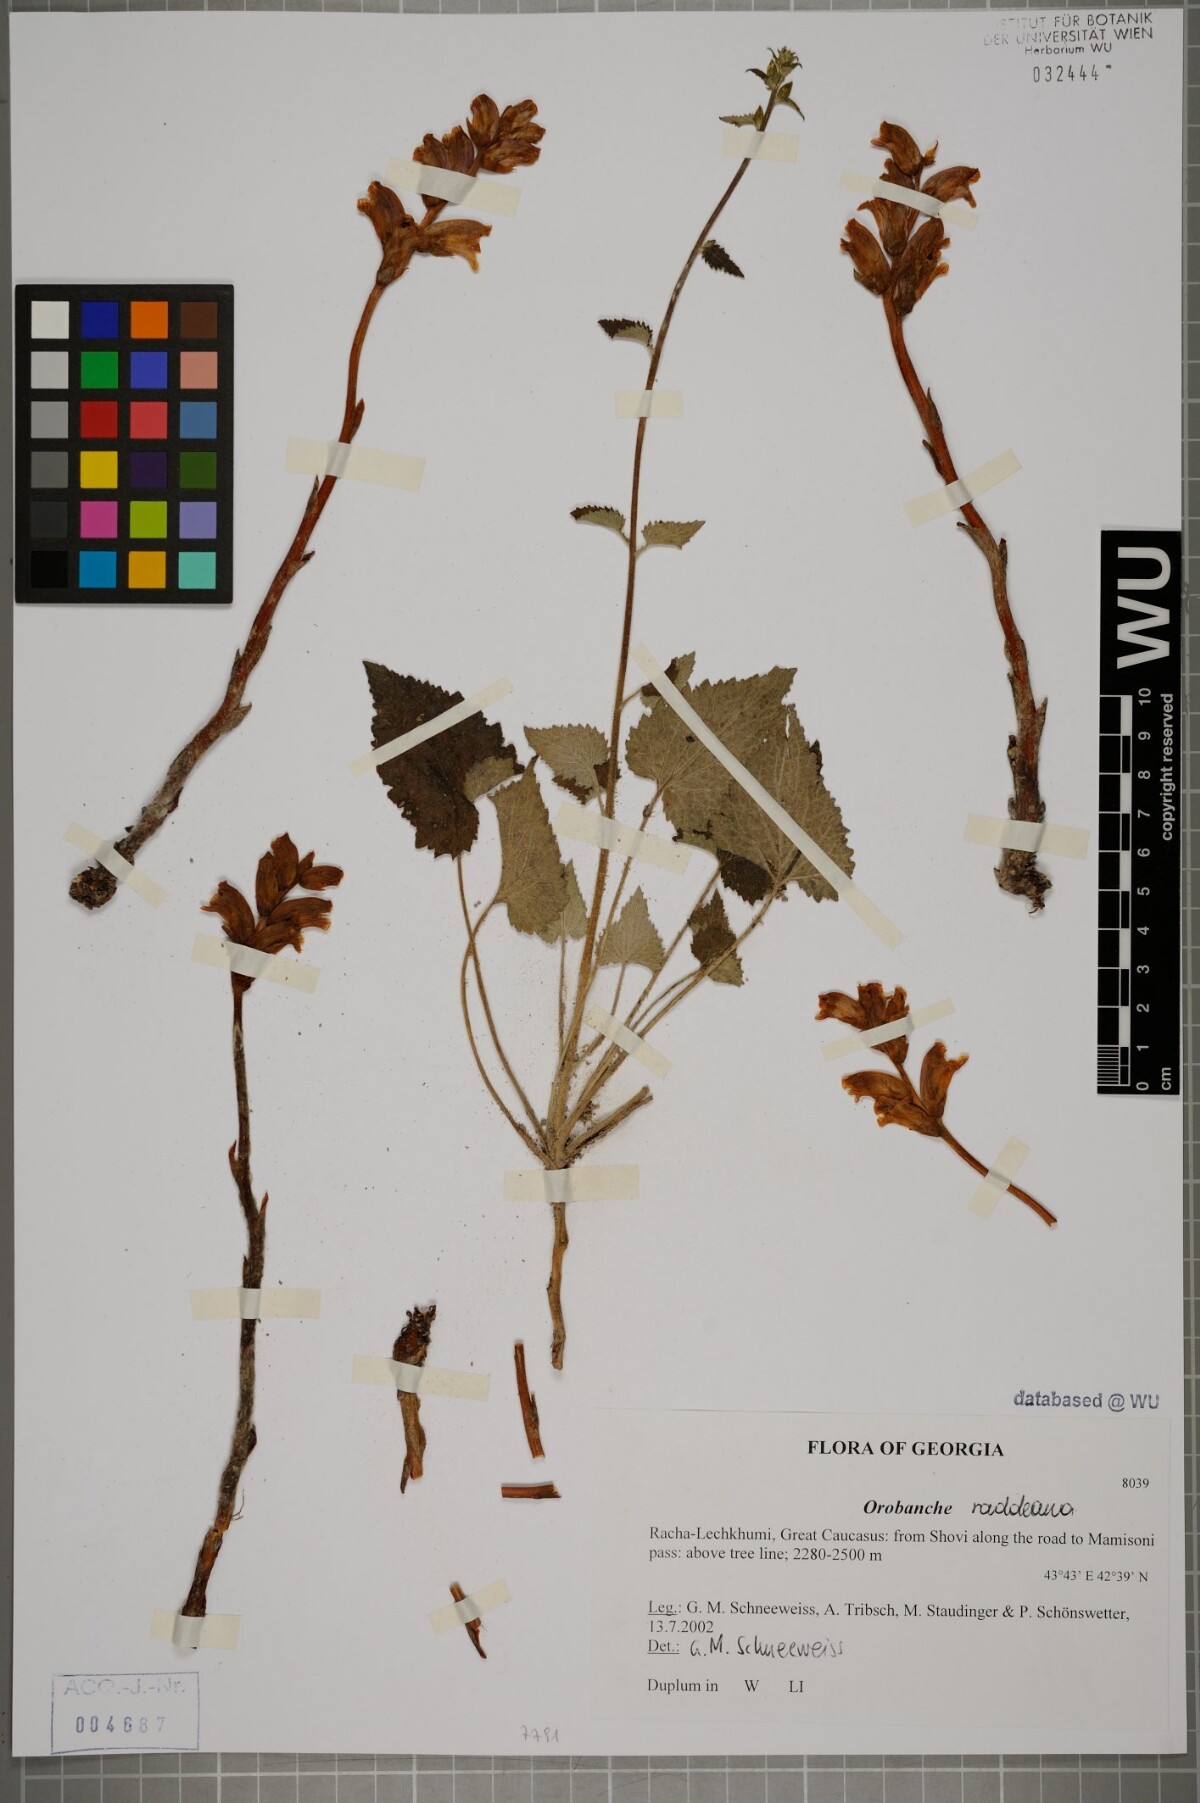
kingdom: Plantae
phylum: Tracheophyta
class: Magnoliopsida
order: Lamiales
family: Orobanchaceae
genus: Orobanche
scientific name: Orobanche alba
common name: Thyme broomrape
